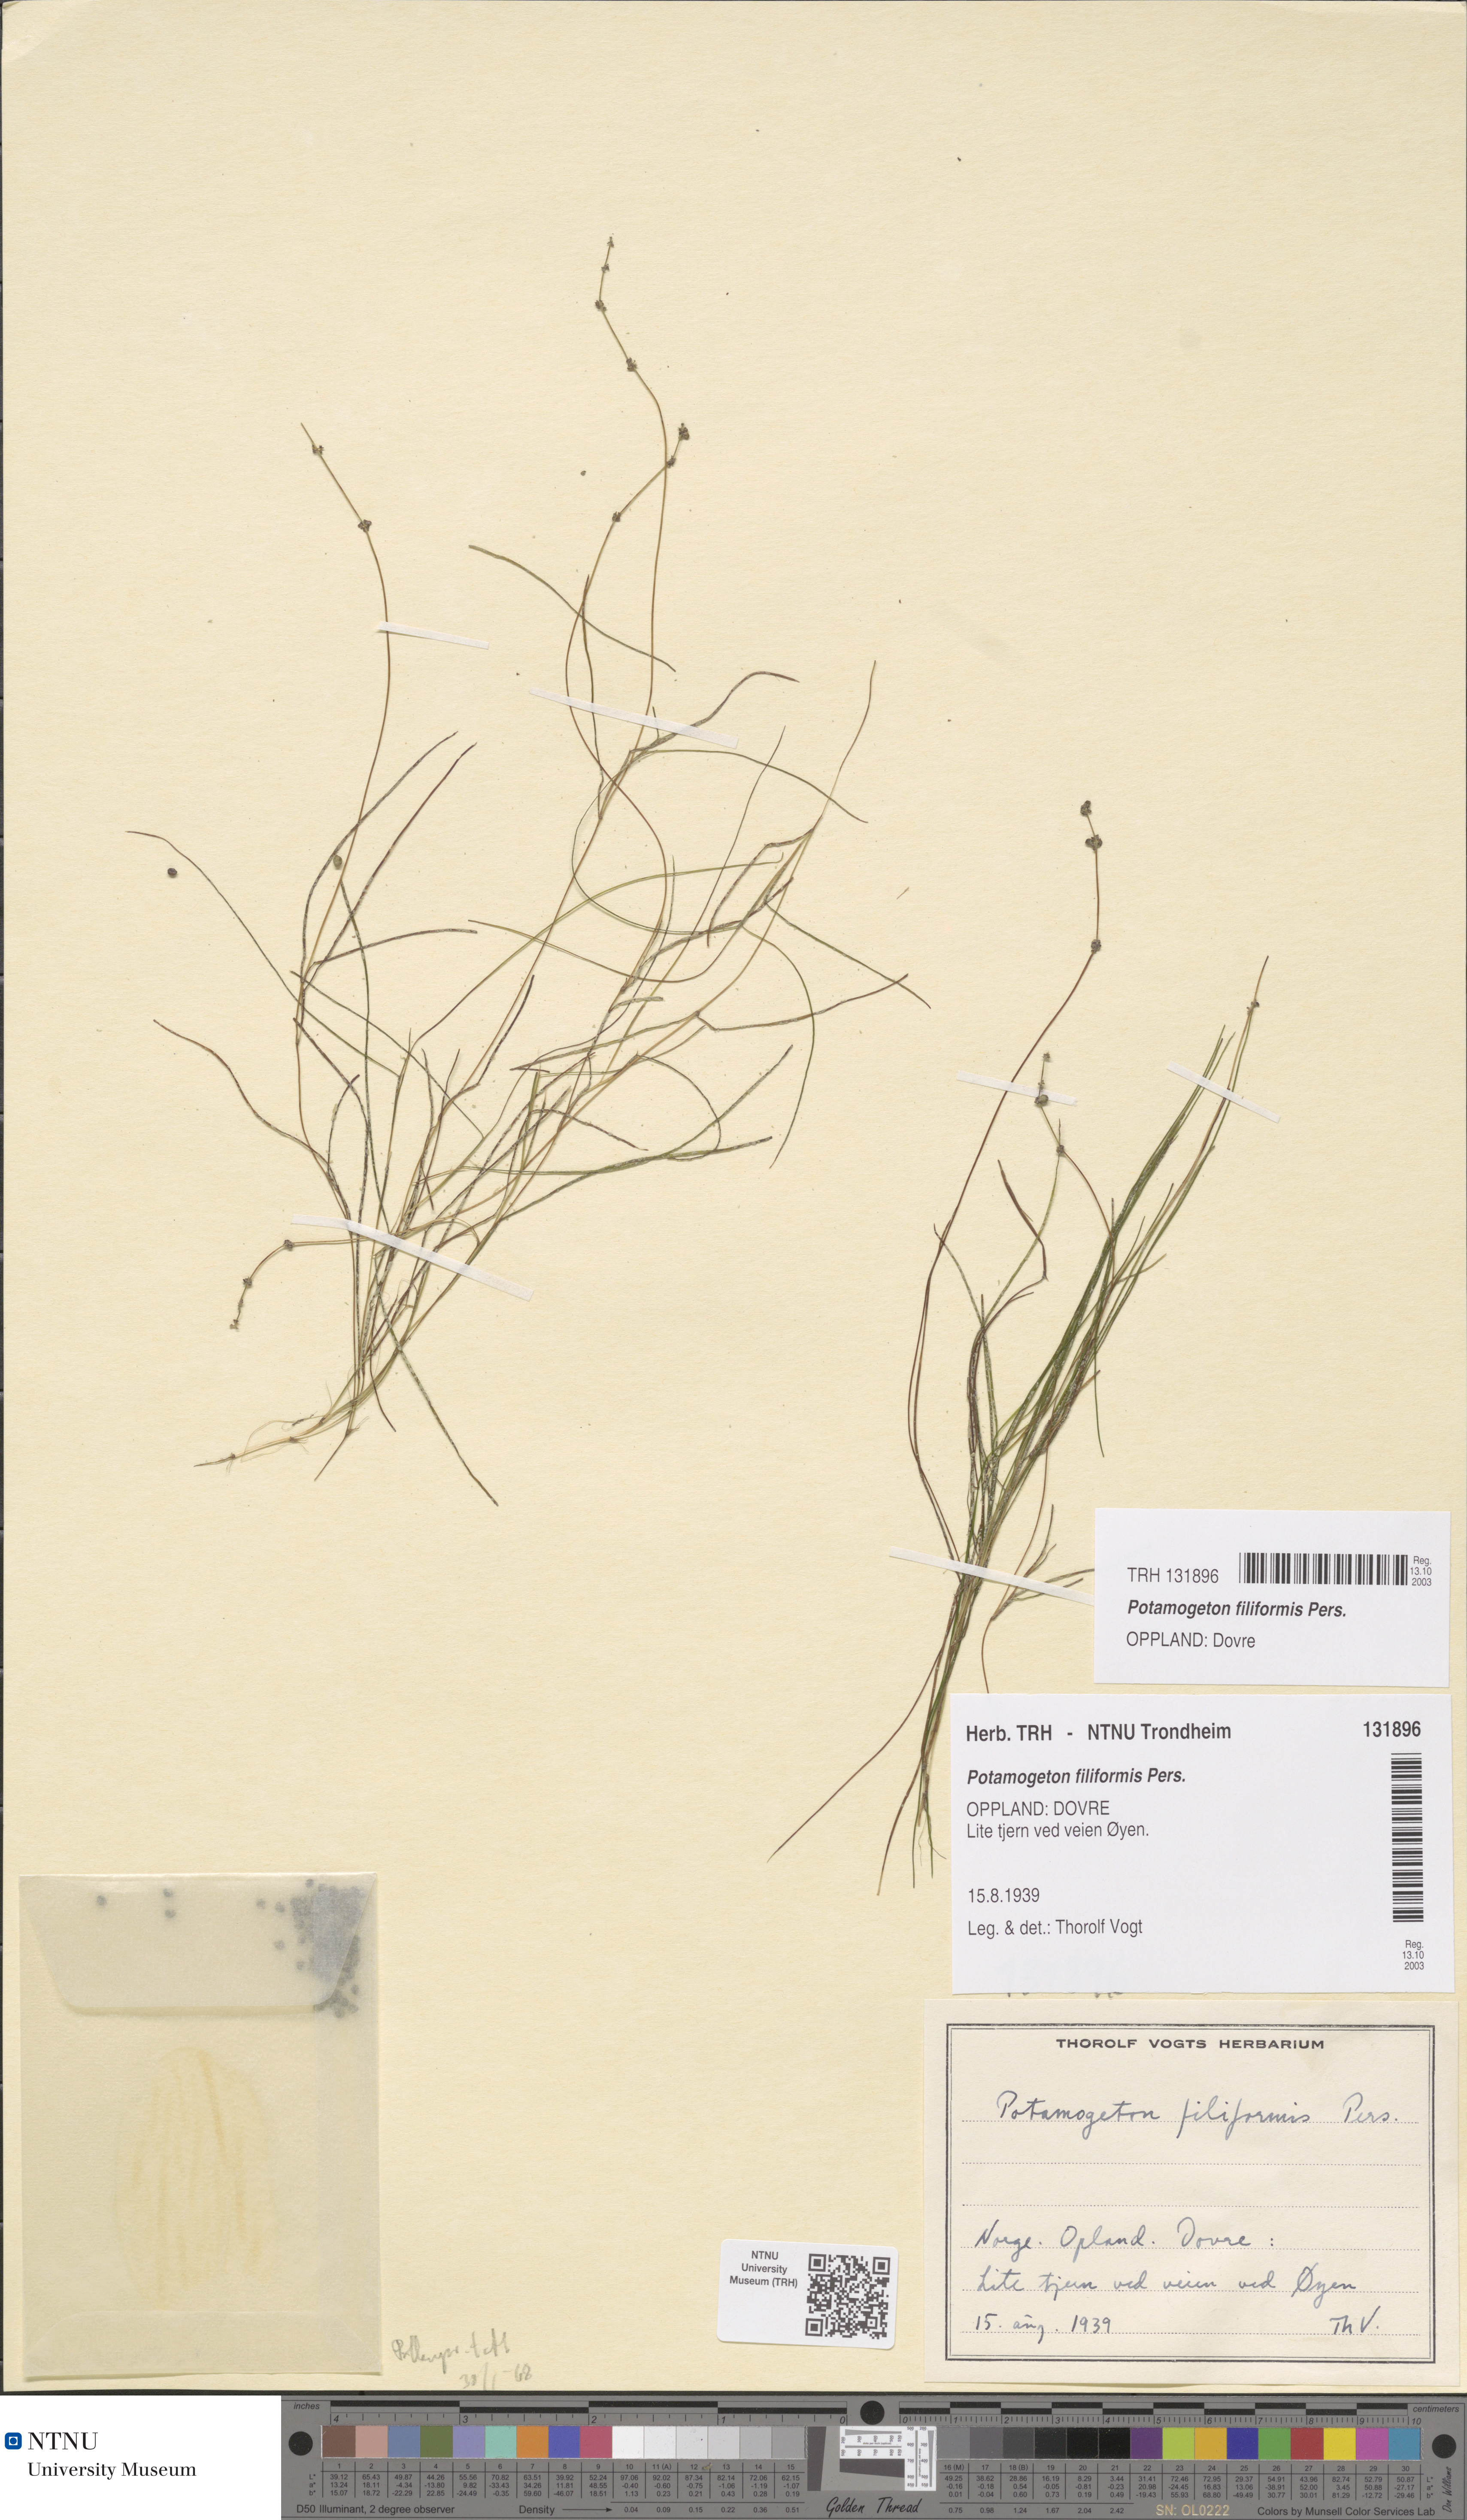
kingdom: Plantae
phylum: Tracheophyta
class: Liliopsida
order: Alismatales
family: Potamogetonaceae
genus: Stuckenia
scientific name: Stuckenia filiformis
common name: Alpine thread-leaved pondweed
